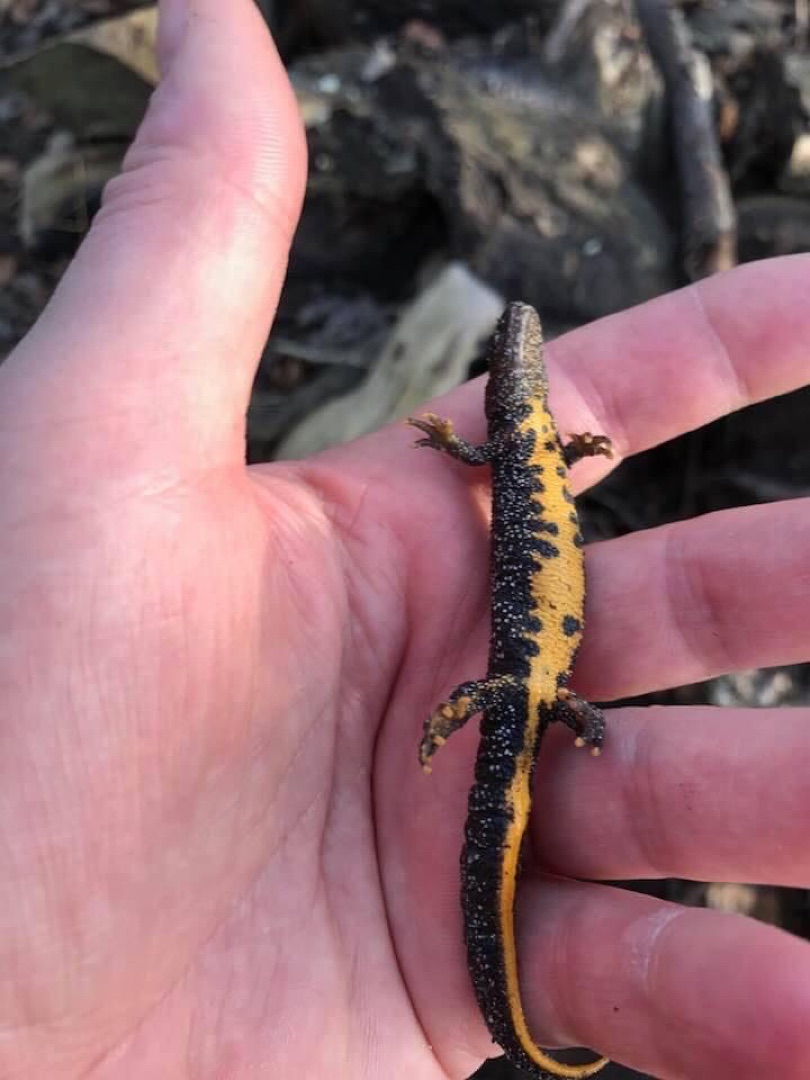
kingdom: Animalia
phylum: Chordata
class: Amphibia
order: Caudata
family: Salamandridae
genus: Triturus
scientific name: Triturus cristatus
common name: Stor vandsalamander
